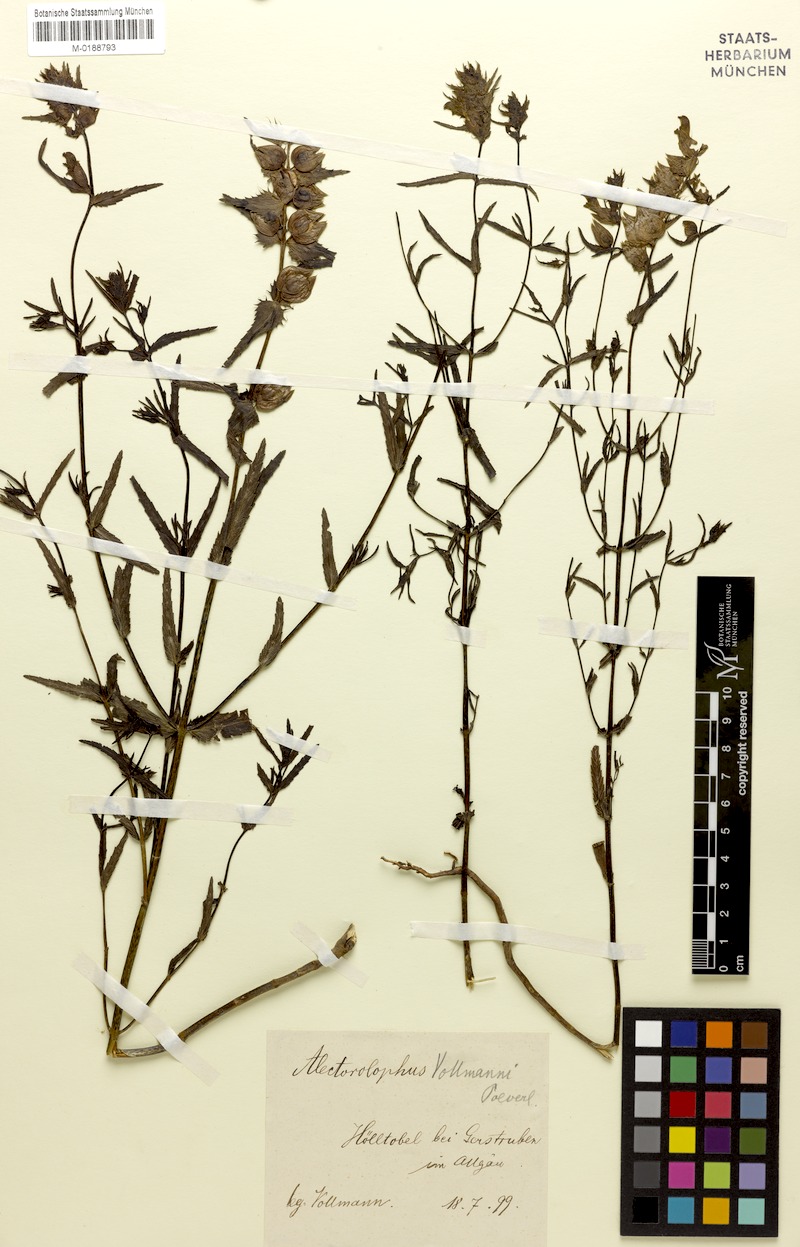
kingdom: Plantae
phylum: Tracheophyta
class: Magnoliopsida
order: Lamiales
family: Orobanchaceae
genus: Rhinanthus
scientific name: Rhinanthus glacialis
